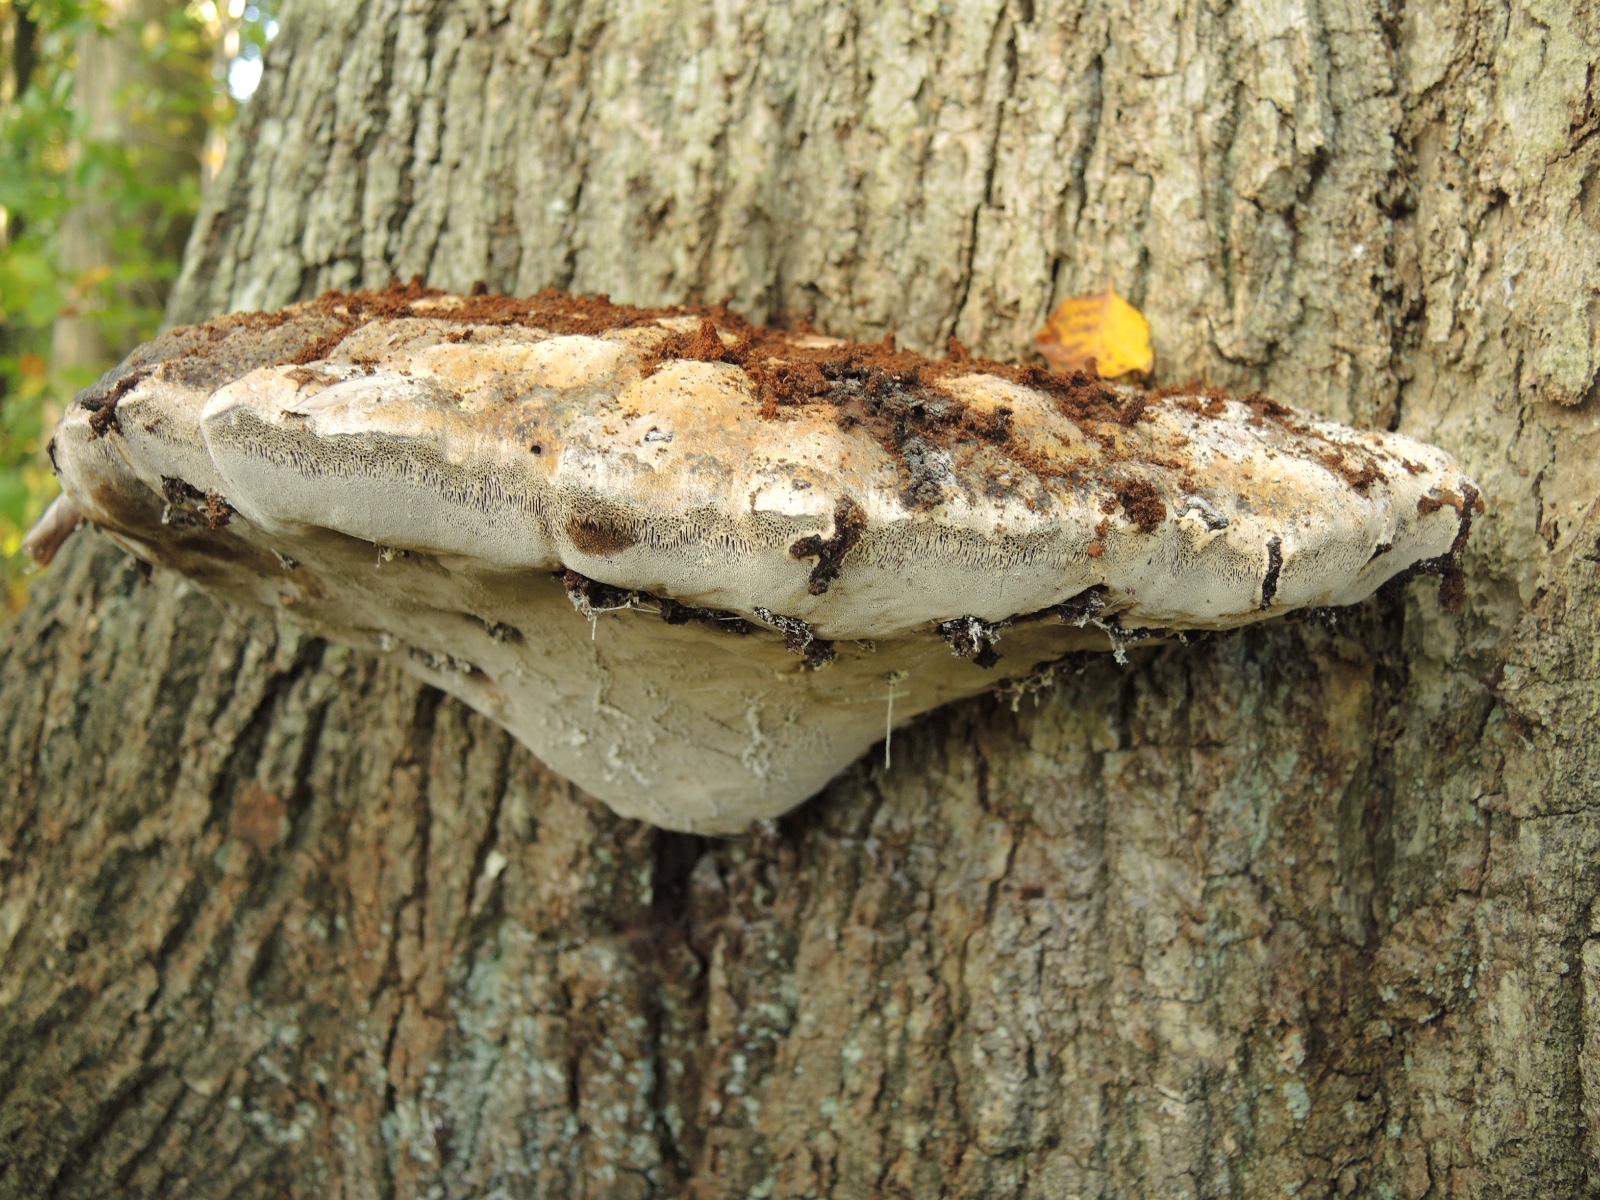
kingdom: Fungi
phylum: Basidiomycota
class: Agaricomycetes
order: Hymenochaetales
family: Hymenochaetaceae
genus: Pseudoinonotus
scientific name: Pseudoinonotus dryadeus
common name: ege-spejlporesvamp
